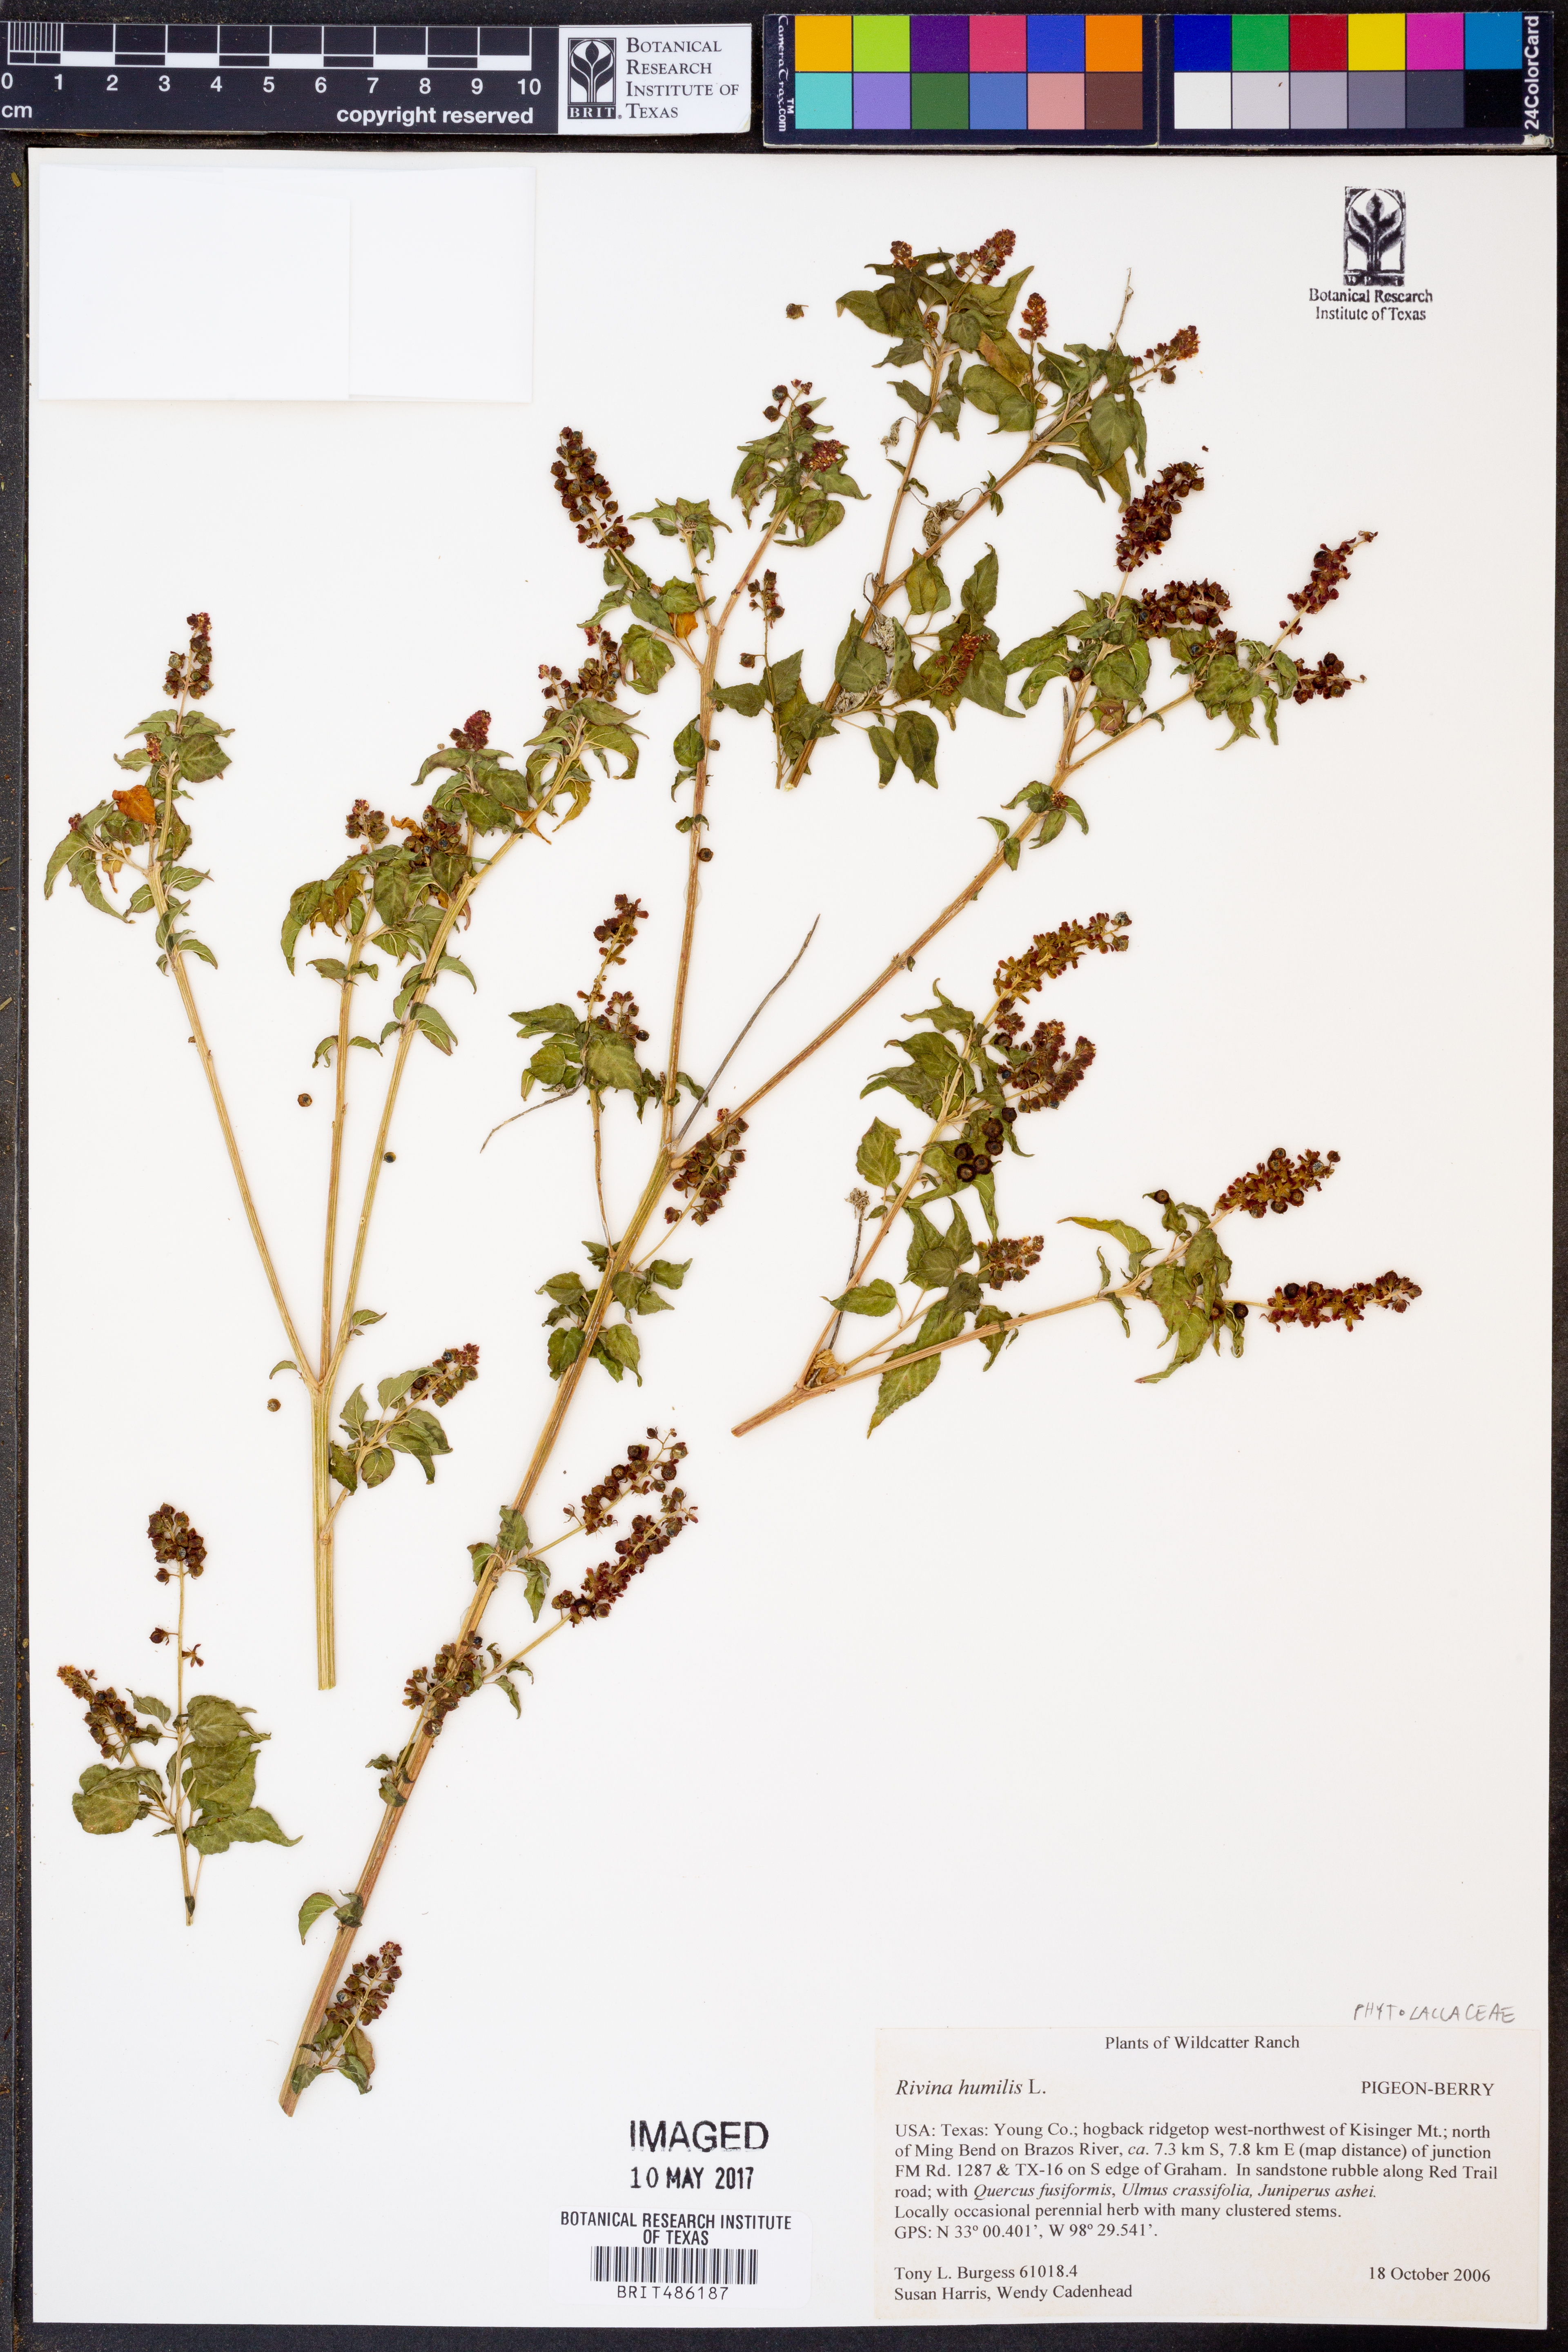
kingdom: Plantae
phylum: Tracheophyta
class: Magnoliopsida
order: Caryophyllales
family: Phytolaccaceae
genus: Rivina
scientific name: Rivina humilis
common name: Rougeplant
